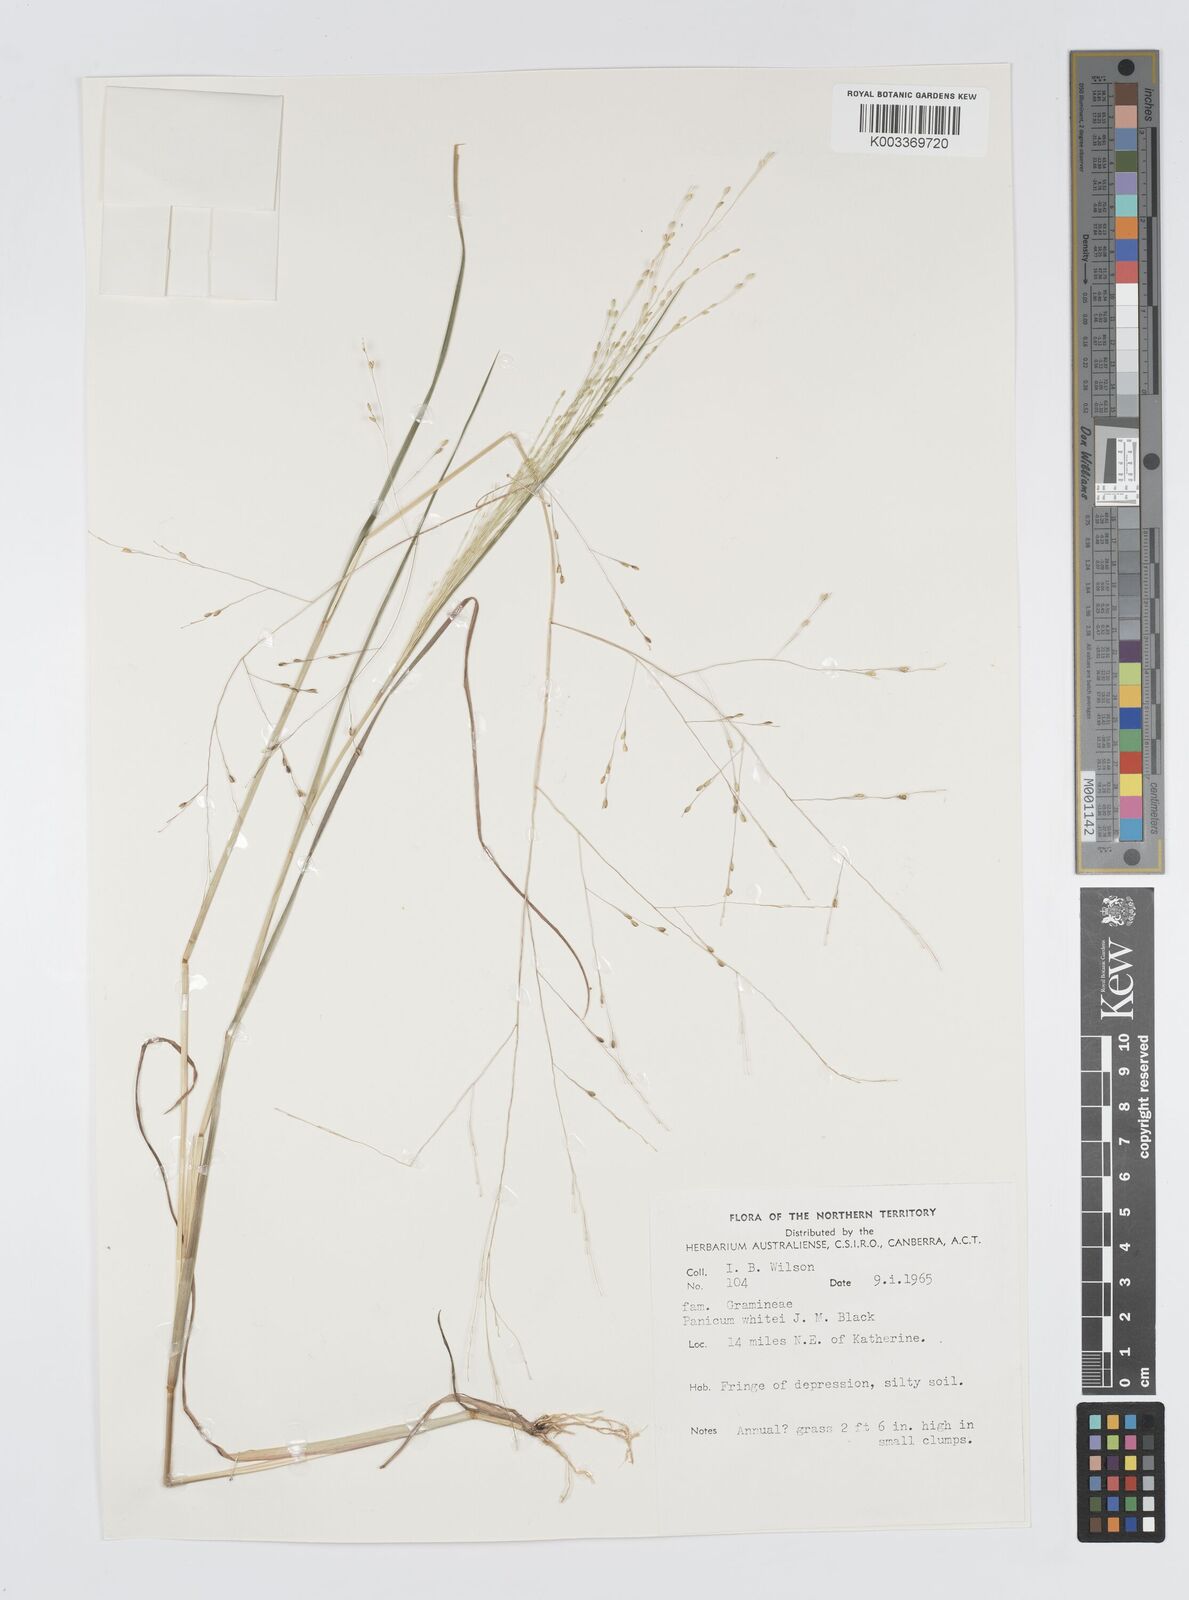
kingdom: Plantae
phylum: Tracheophyta
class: Liliopsida
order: Poales
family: Poaceae
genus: Panicum
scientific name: Panicum laevinode
